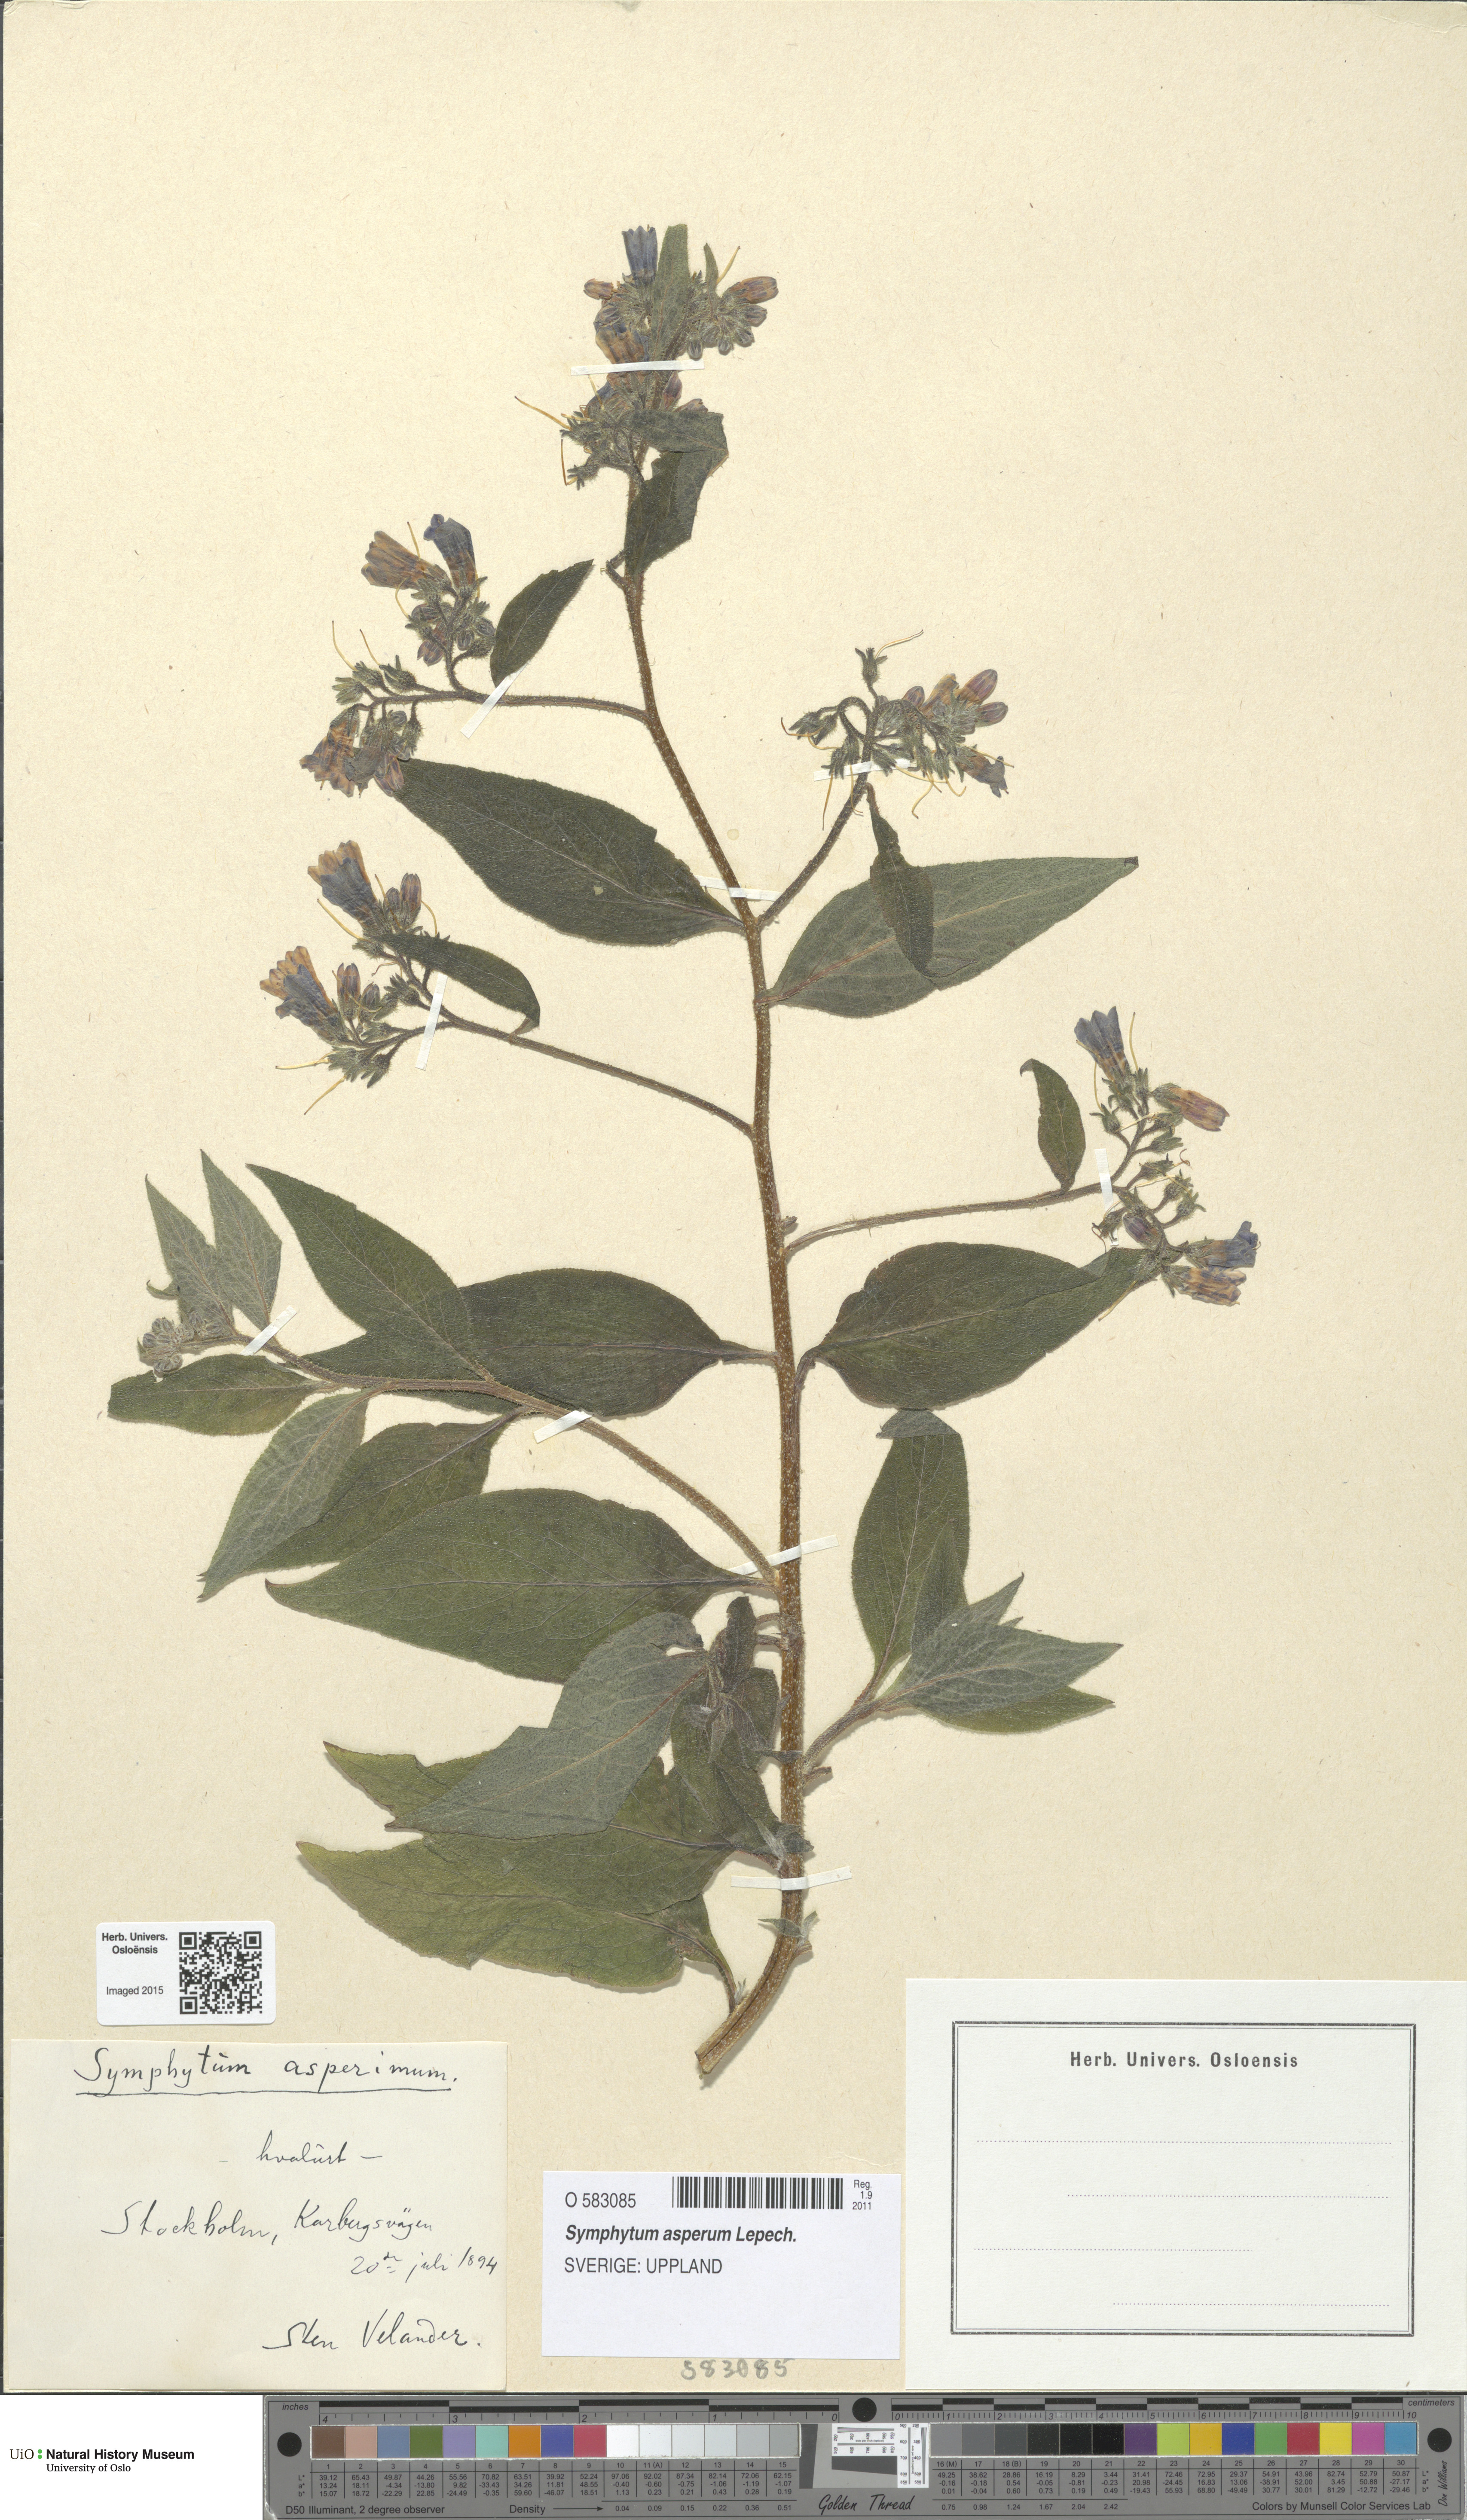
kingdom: Plantae
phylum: Tracheophyta
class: Magnoliopsida
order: Boraginales
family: Boraginaceae
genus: Symphytum
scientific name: Symphytum asperum
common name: Prickly comfrey
